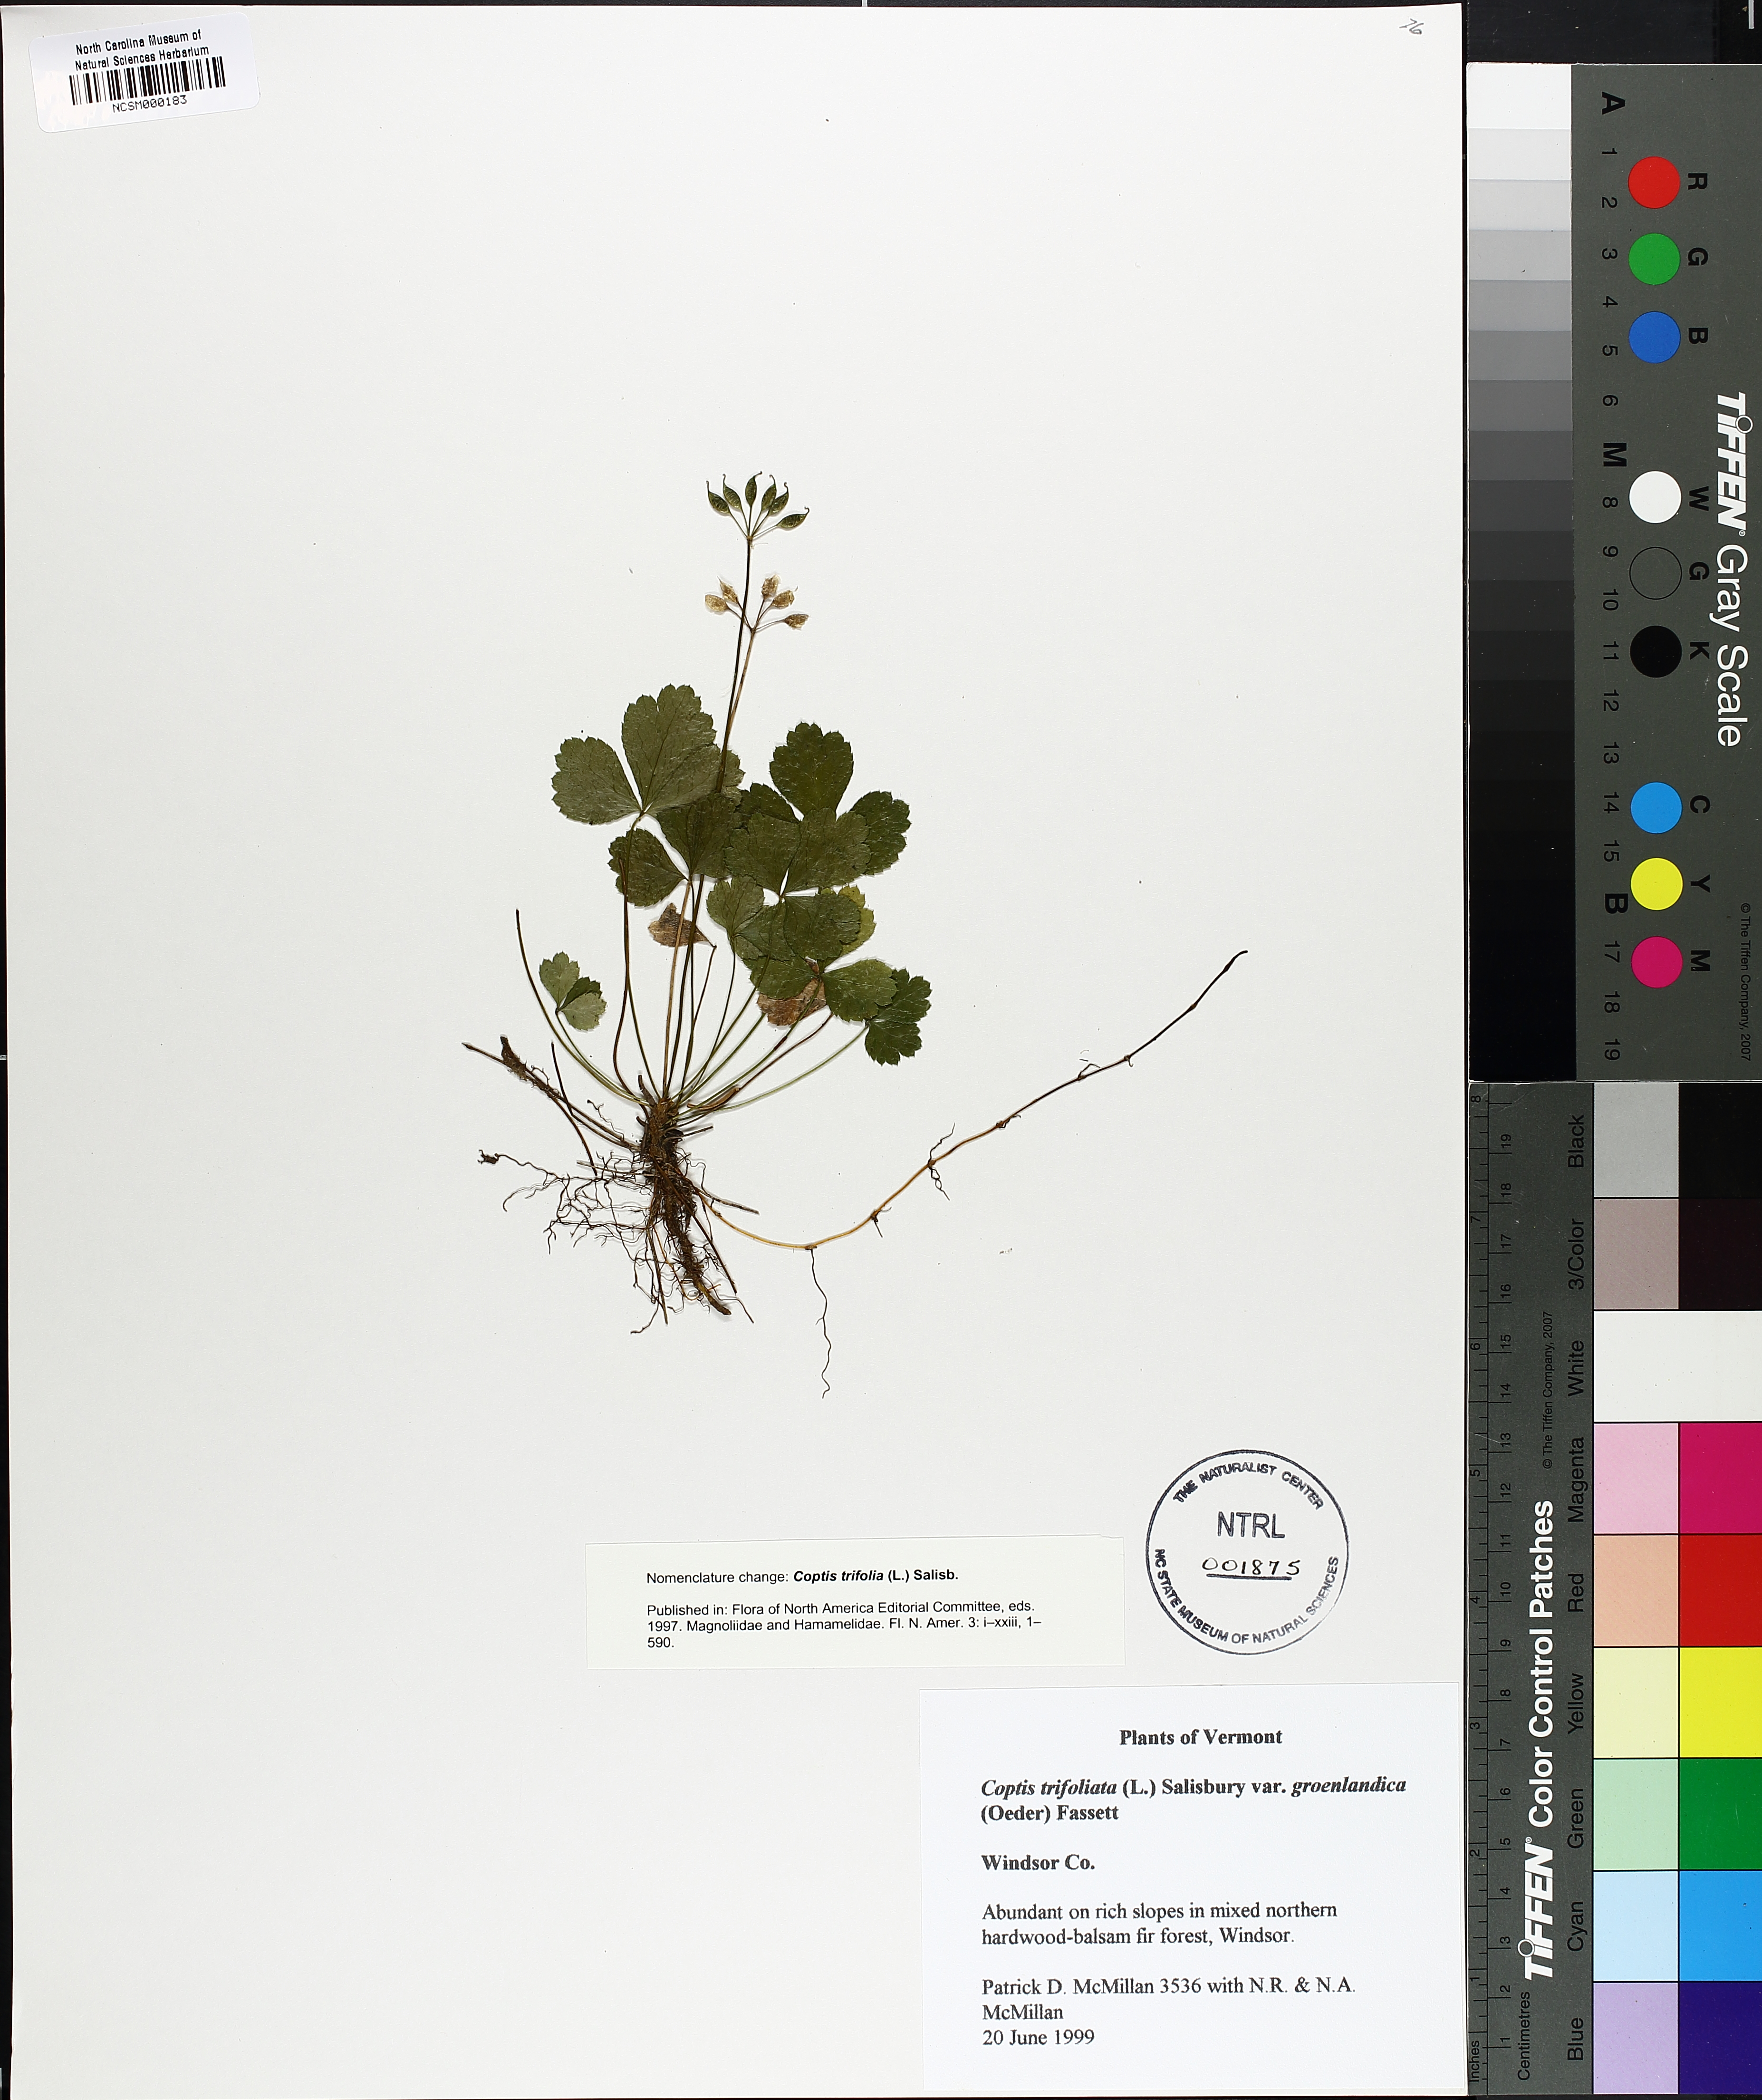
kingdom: Plantae
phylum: Tracheophyta
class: Magnoliopsida
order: Ranunculales
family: Ranunculaceae
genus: Coptis
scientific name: Coptis trifolia
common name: Canker-root
